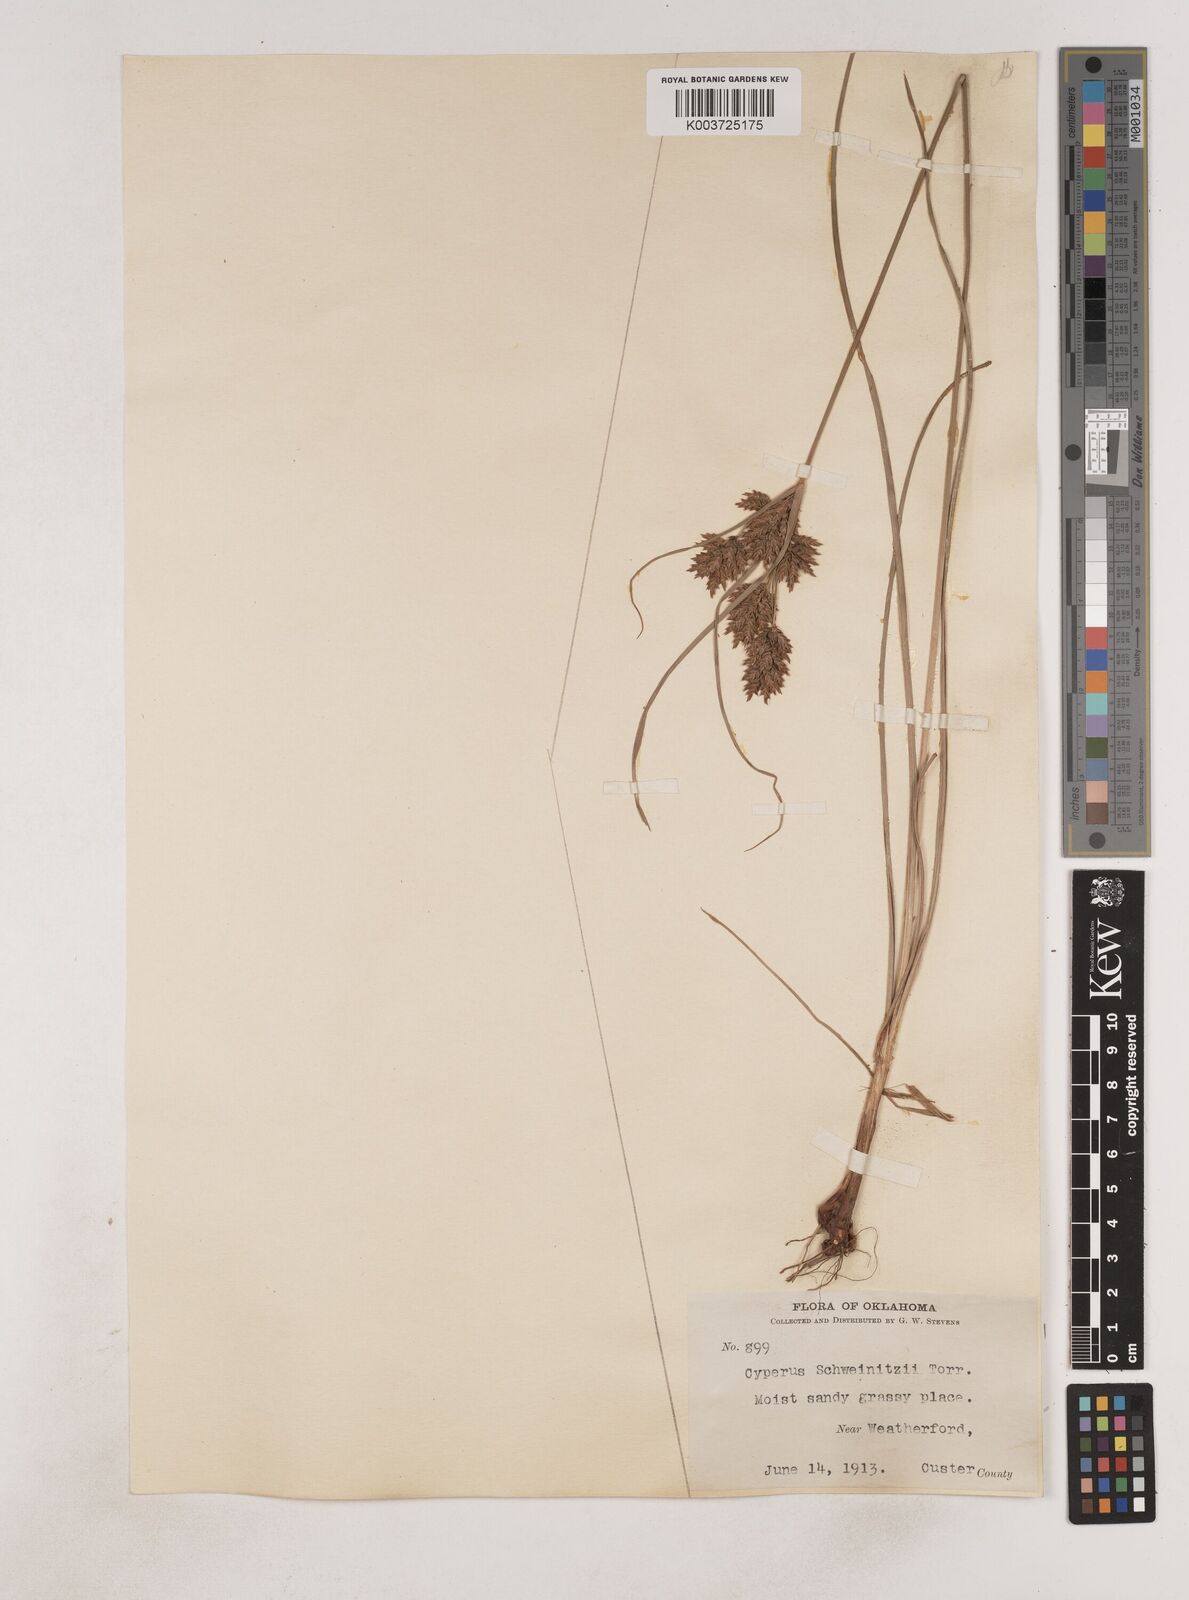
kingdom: Plantae
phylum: Tracheophyta
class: Liliopsida
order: Poales
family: Cyperaceae
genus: Cyperus
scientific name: Cyperus schweinitzii
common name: Schweinitz's cyperus
